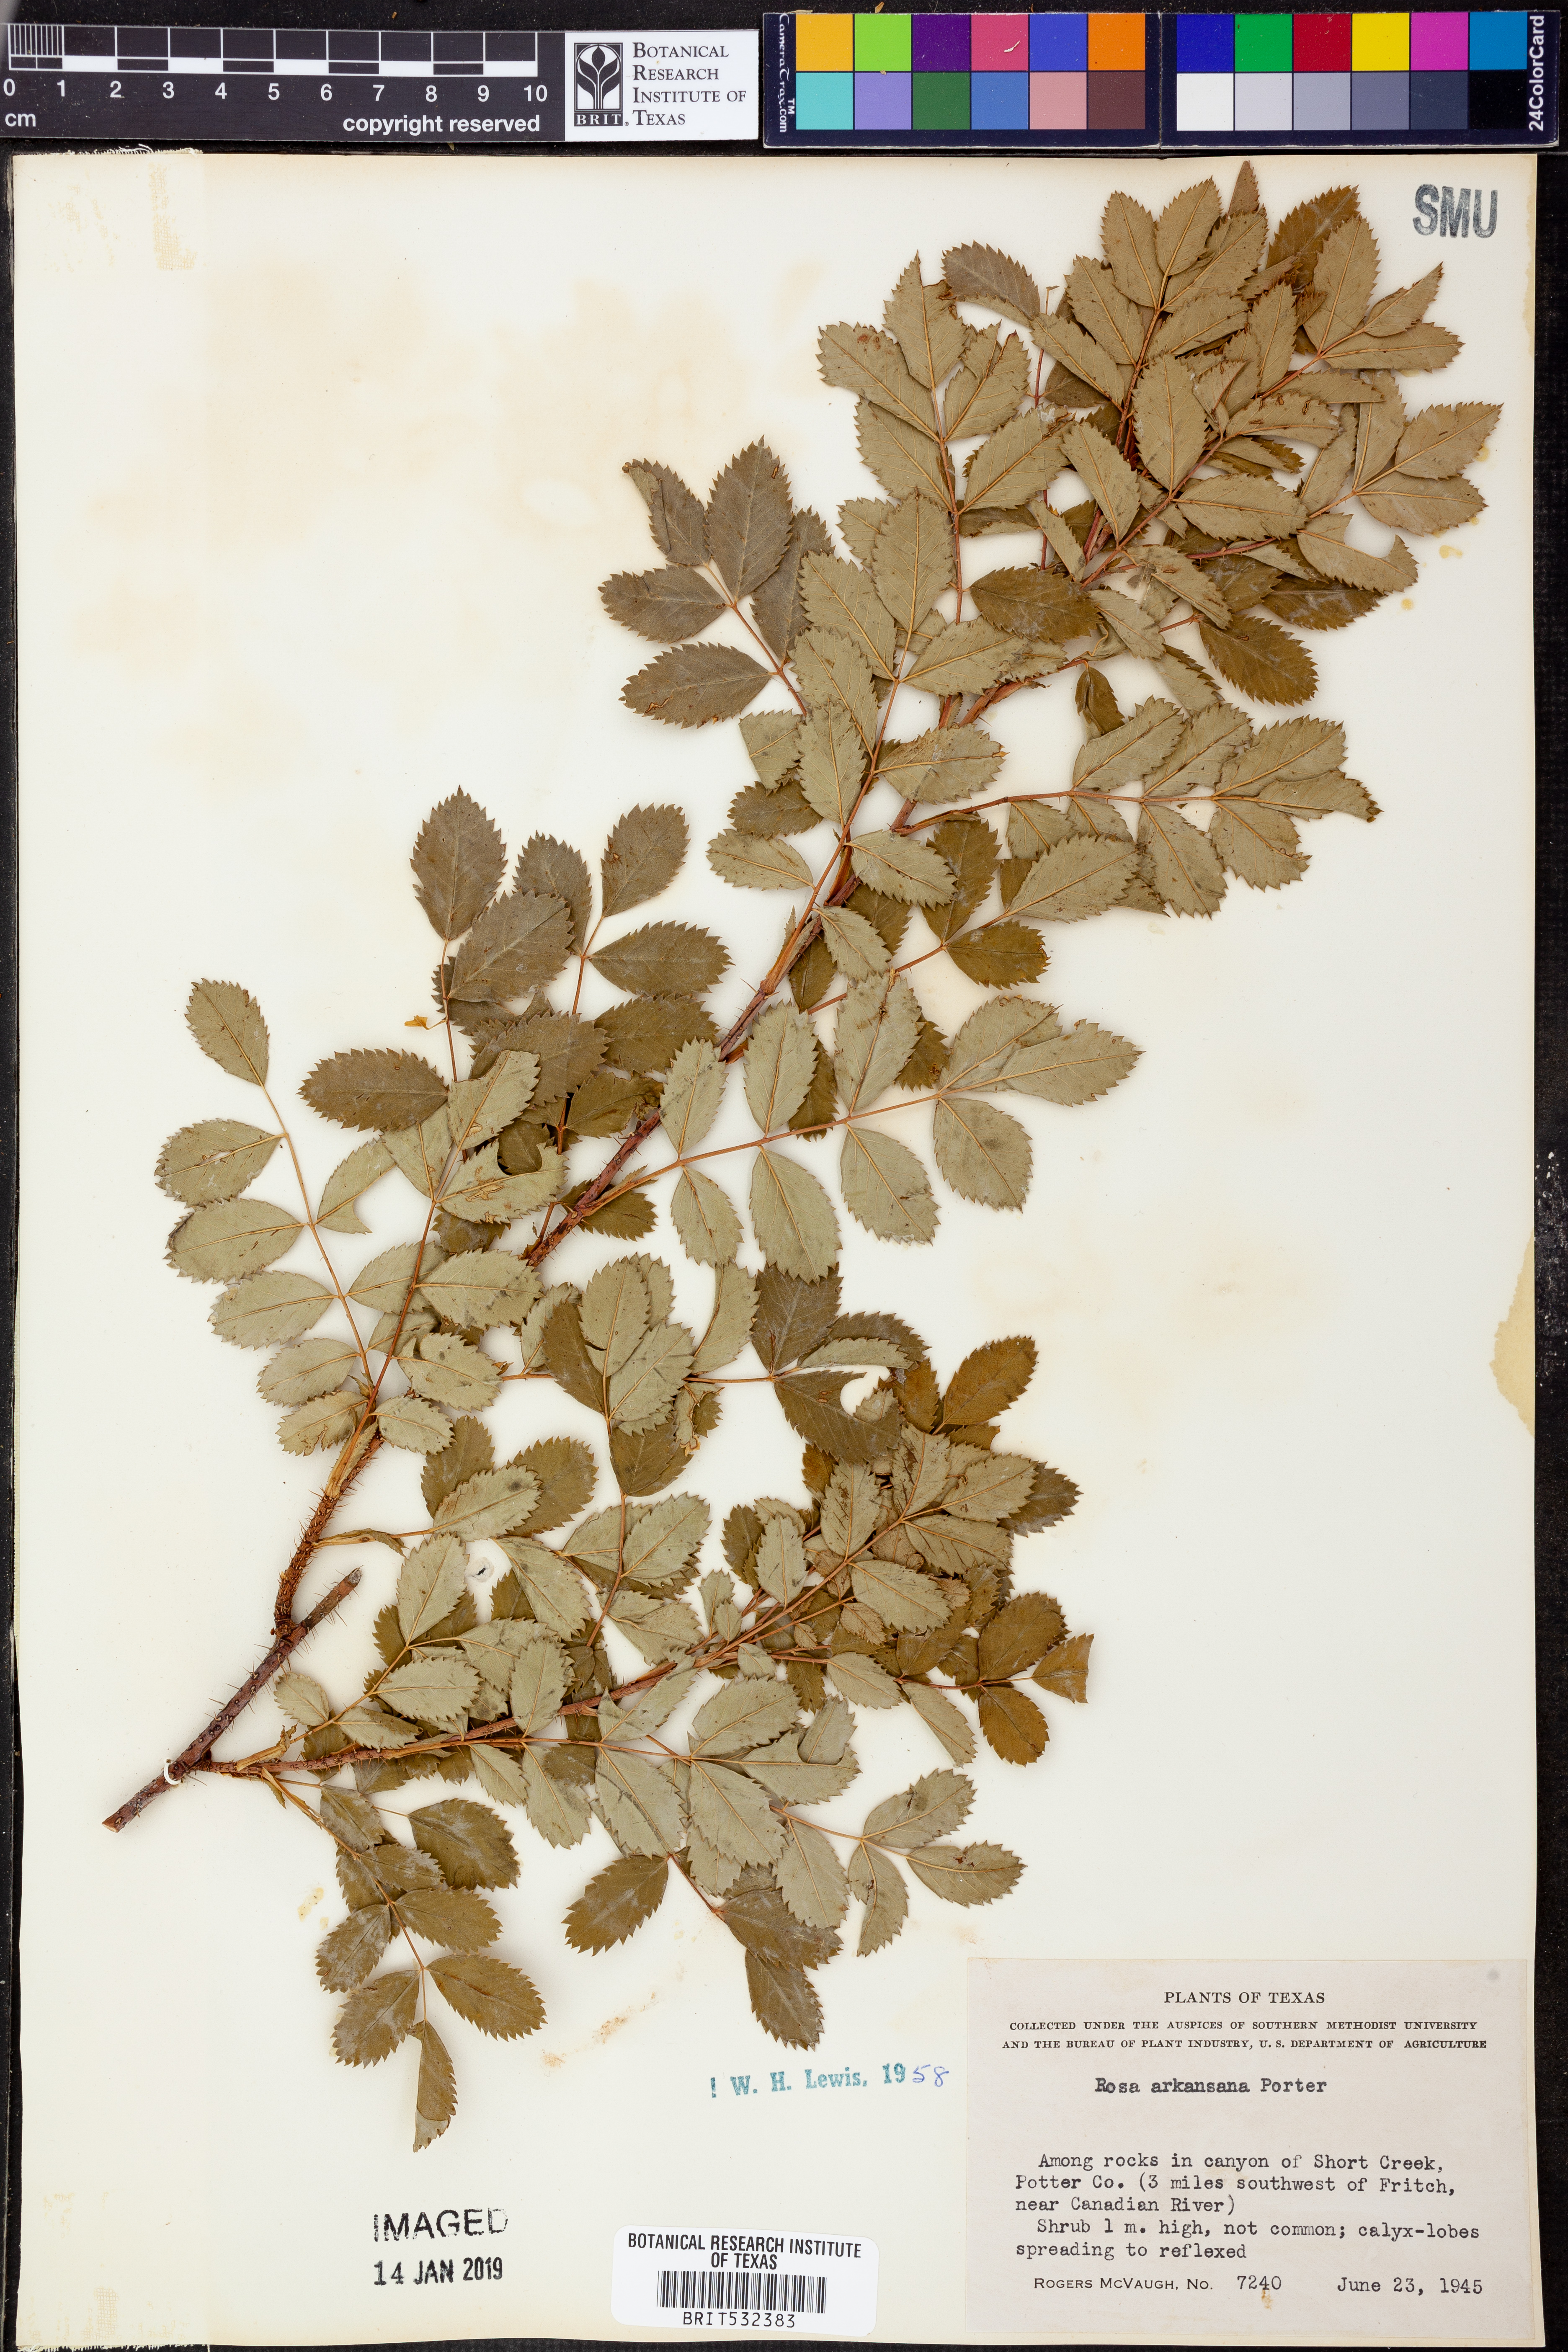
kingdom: Plantae
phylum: Tracheophyta
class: Magnoliopsida
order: Rosales
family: Rosaceae
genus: Rosa
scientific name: Rosa arkansana
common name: Prairie rose
